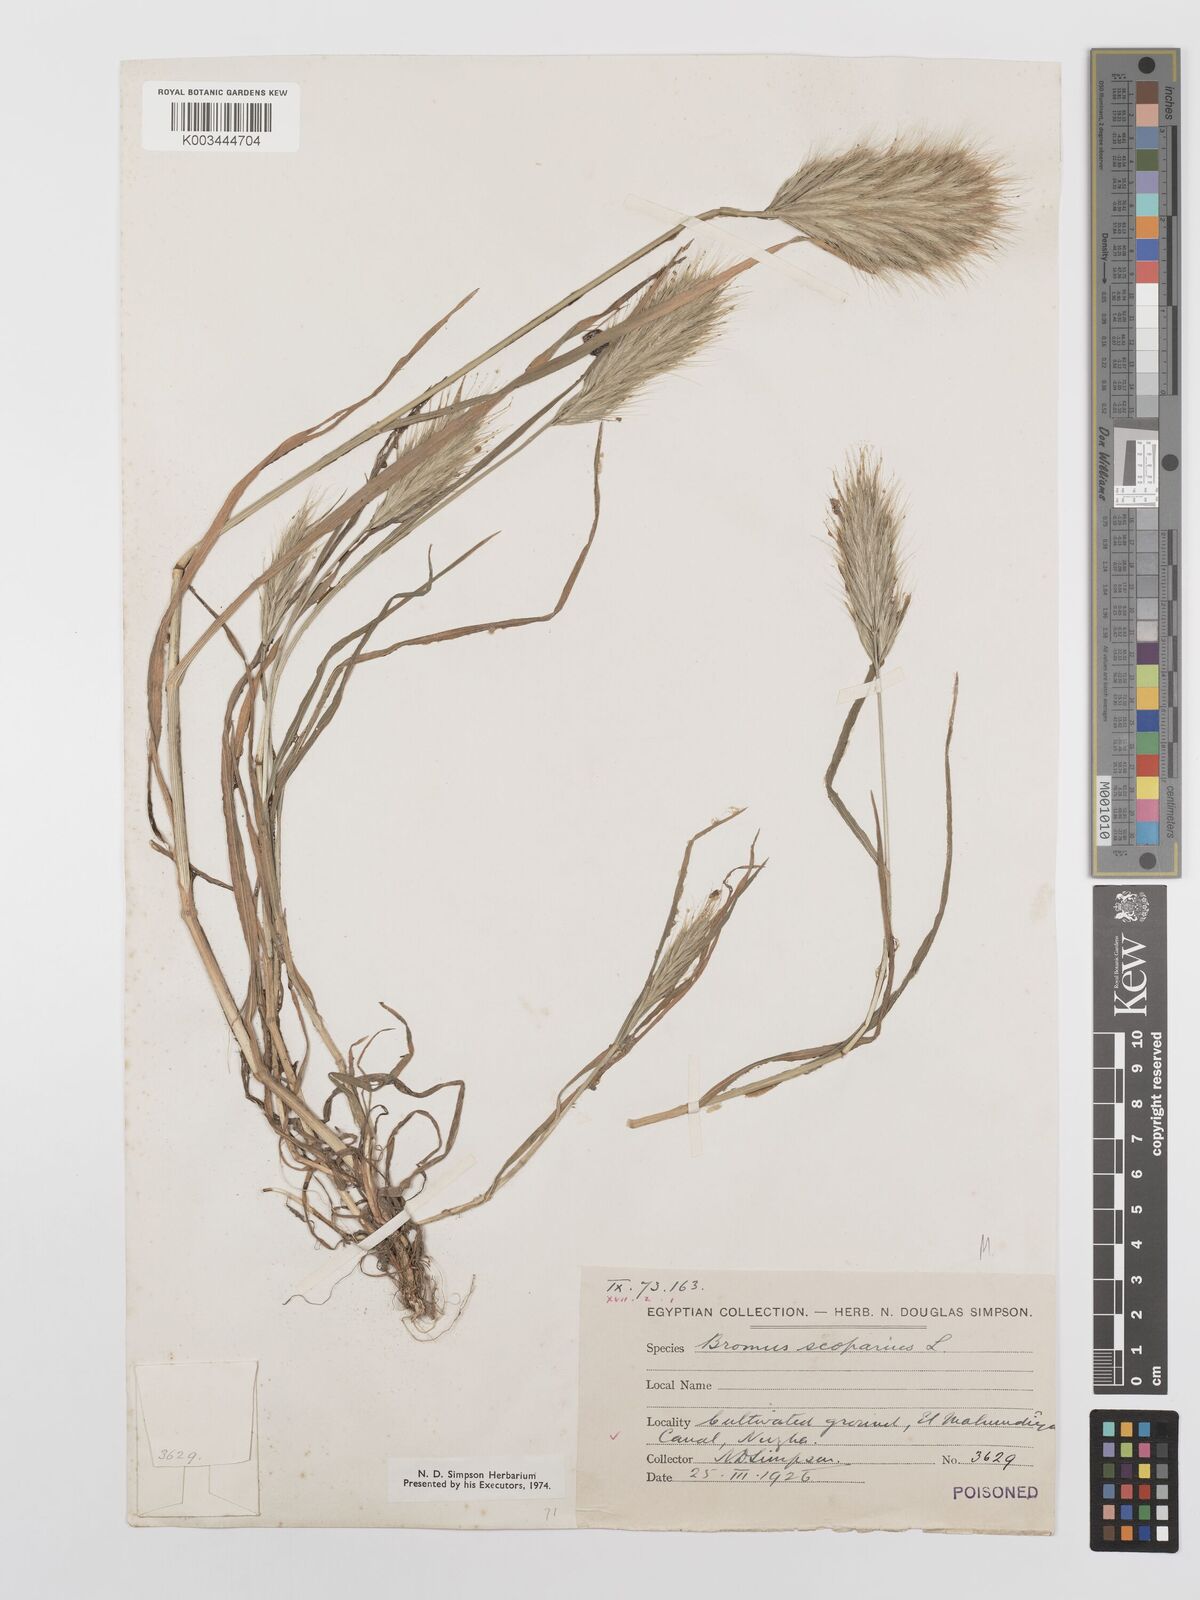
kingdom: Plantae
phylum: Tracheophyta
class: Liliopsida
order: Poales
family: Poaceae
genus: Bromus
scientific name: Bromus scoparius
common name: Broom brome
